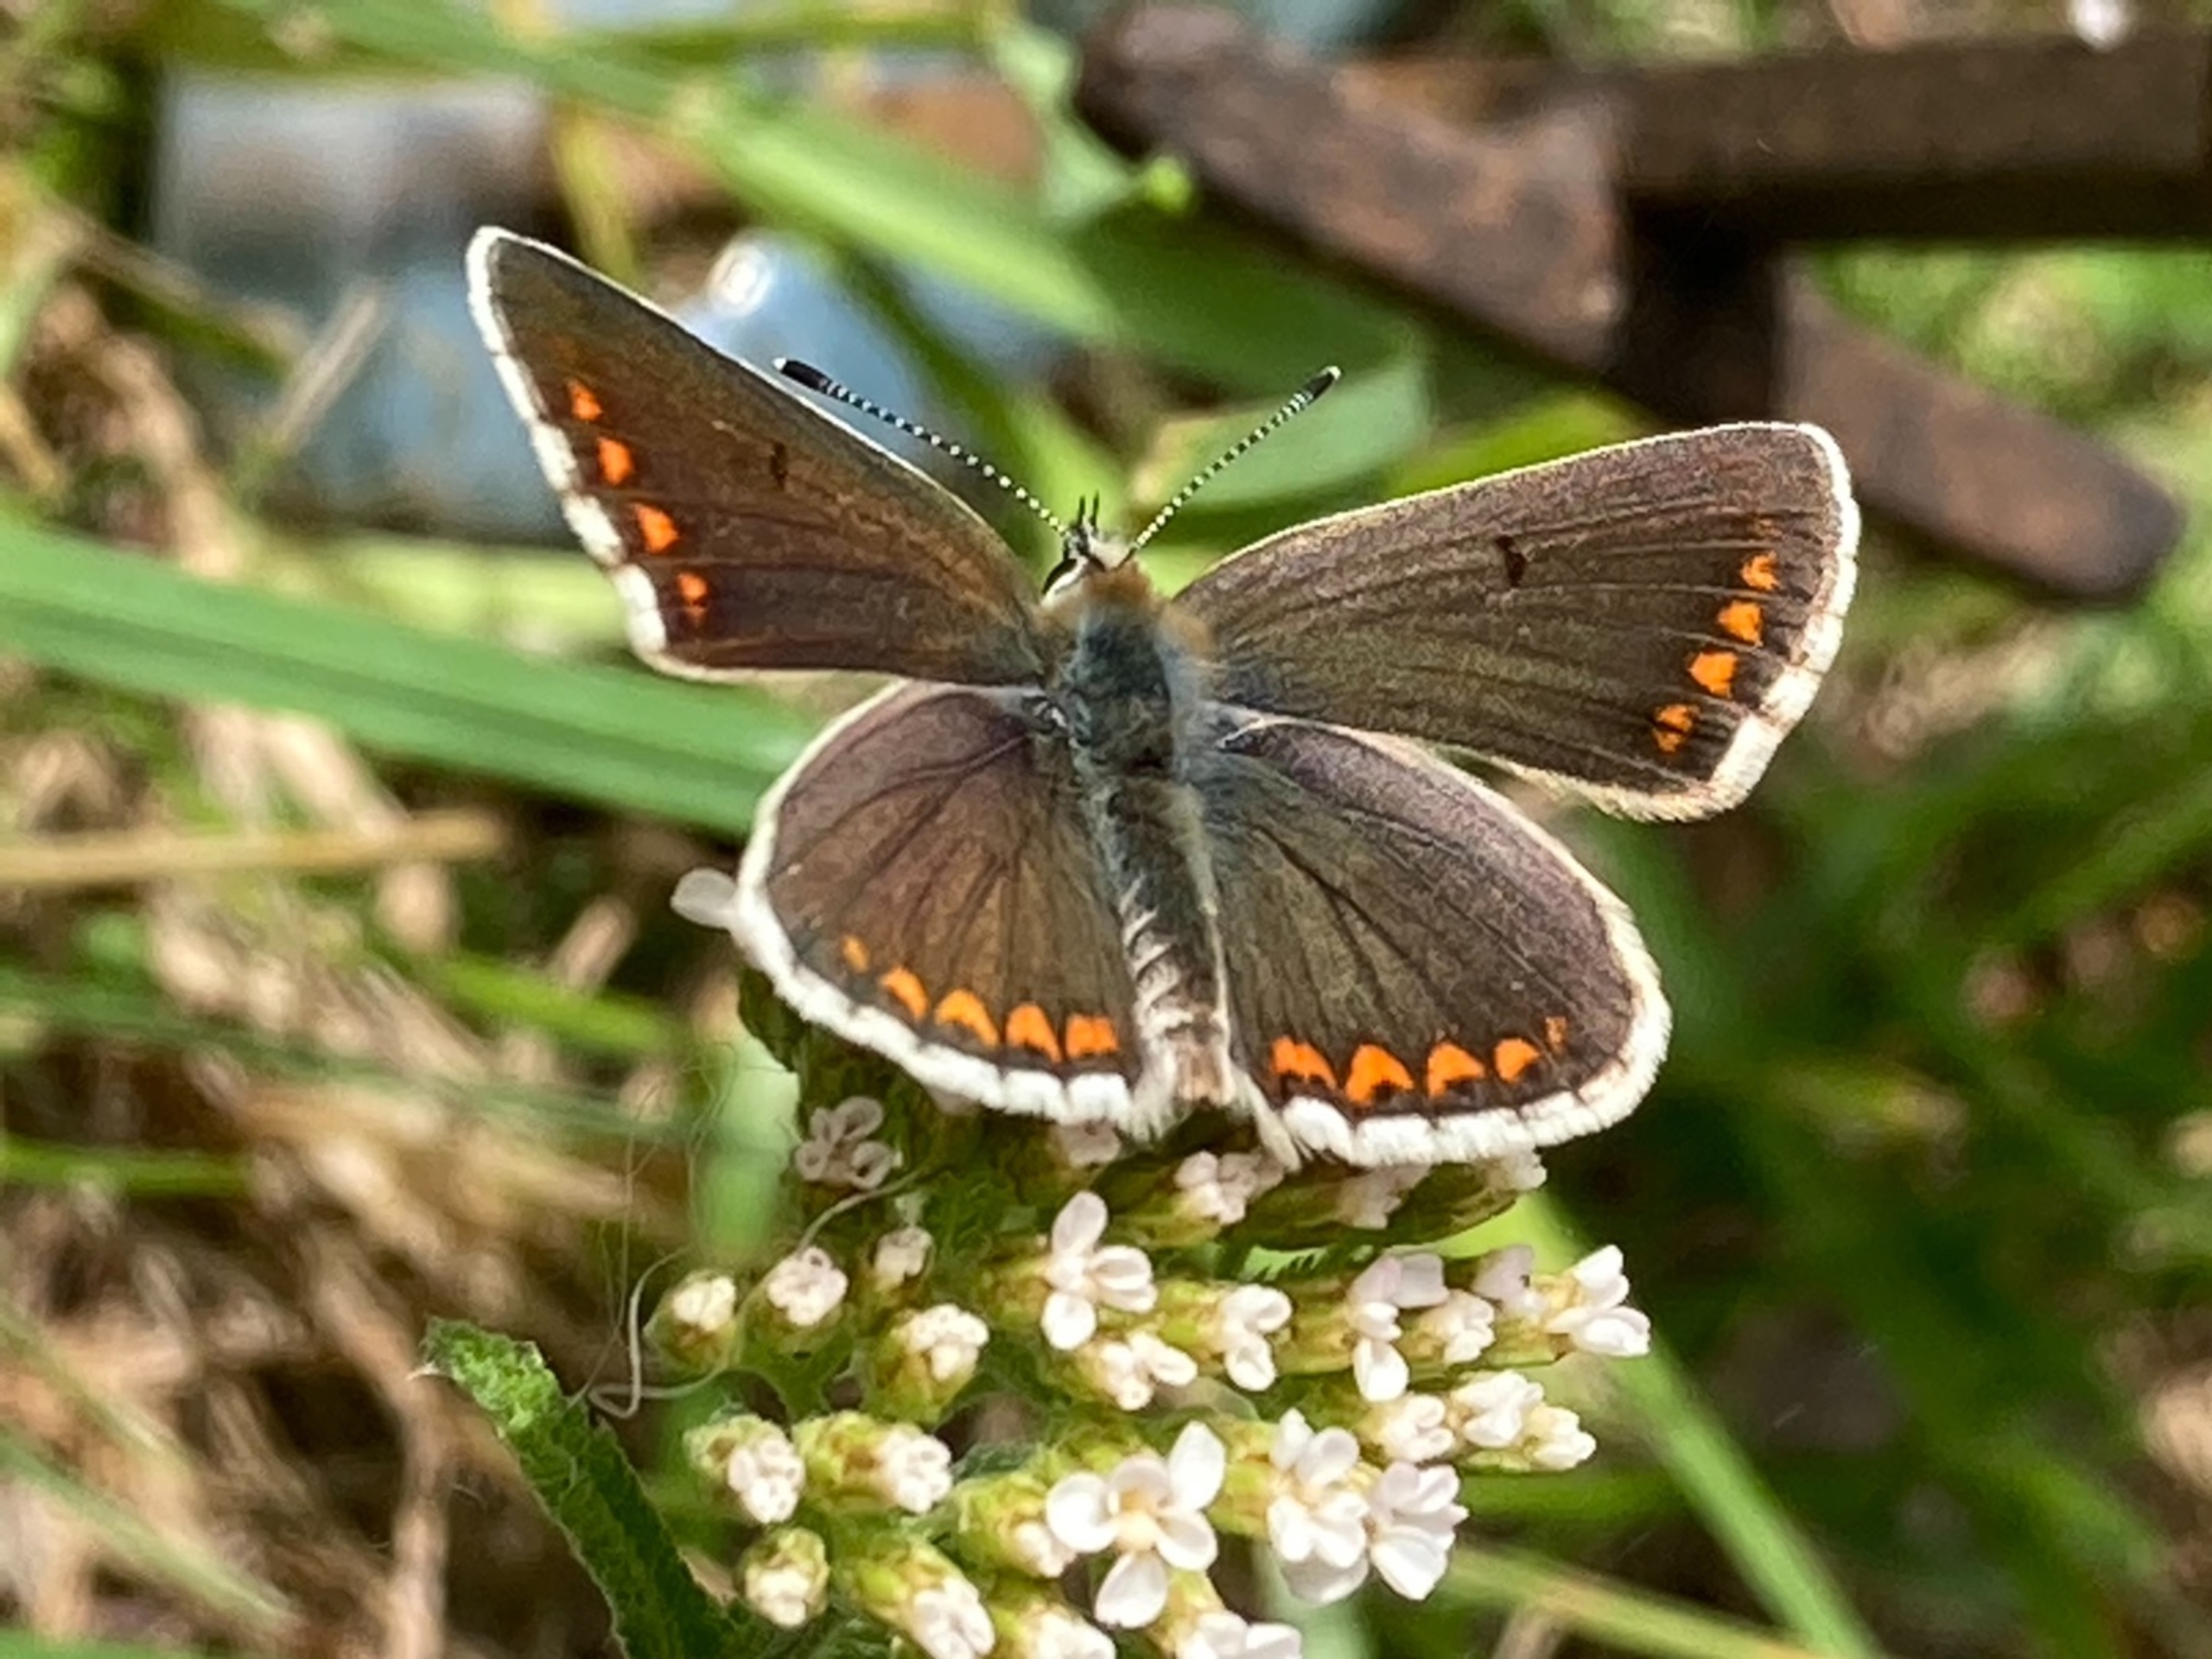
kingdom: Animalia
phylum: Arthropoda
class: Insecta
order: Lepidoptera
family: Lycaenidae
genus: Aricia
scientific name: Aricia agestis
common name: Rødplettet blåfugl
